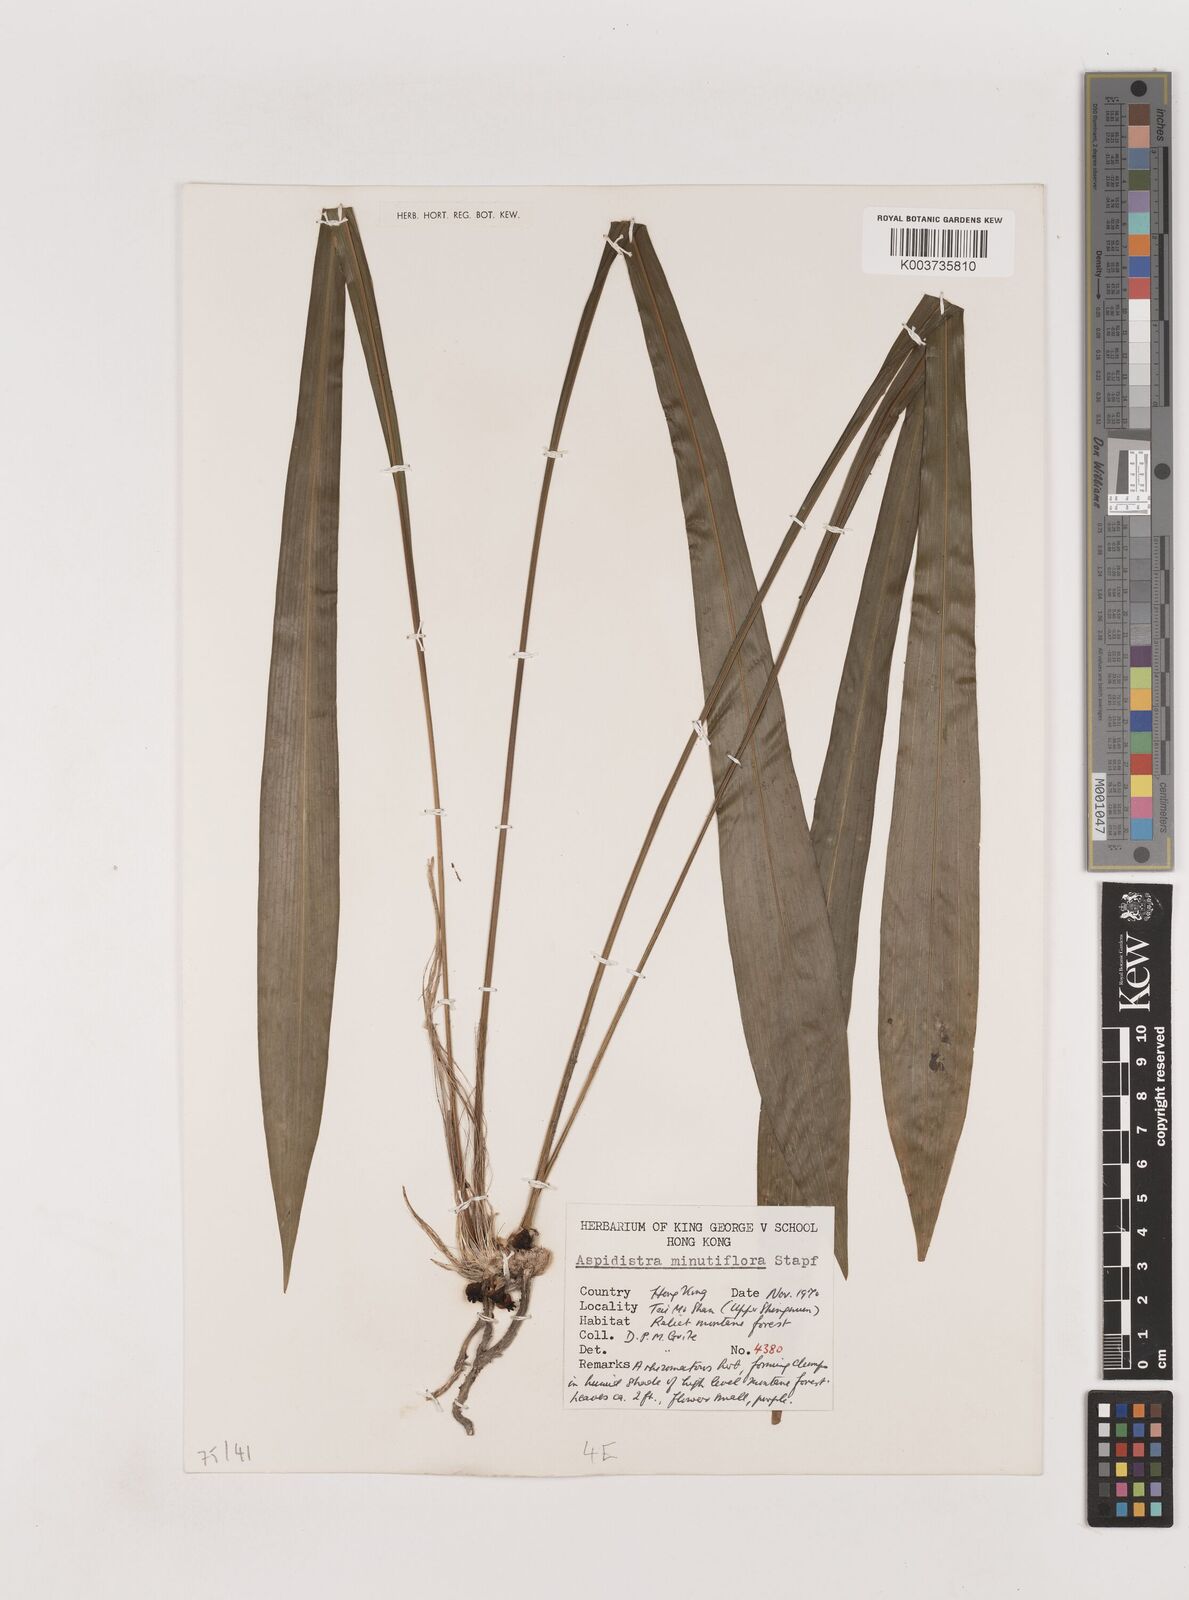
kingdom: Plantae
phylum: Tracheophyta
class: Liliopsida
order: Asparagales
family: Asparagaceae
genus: Aspidistra
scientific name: Aspidistra minutiflora
